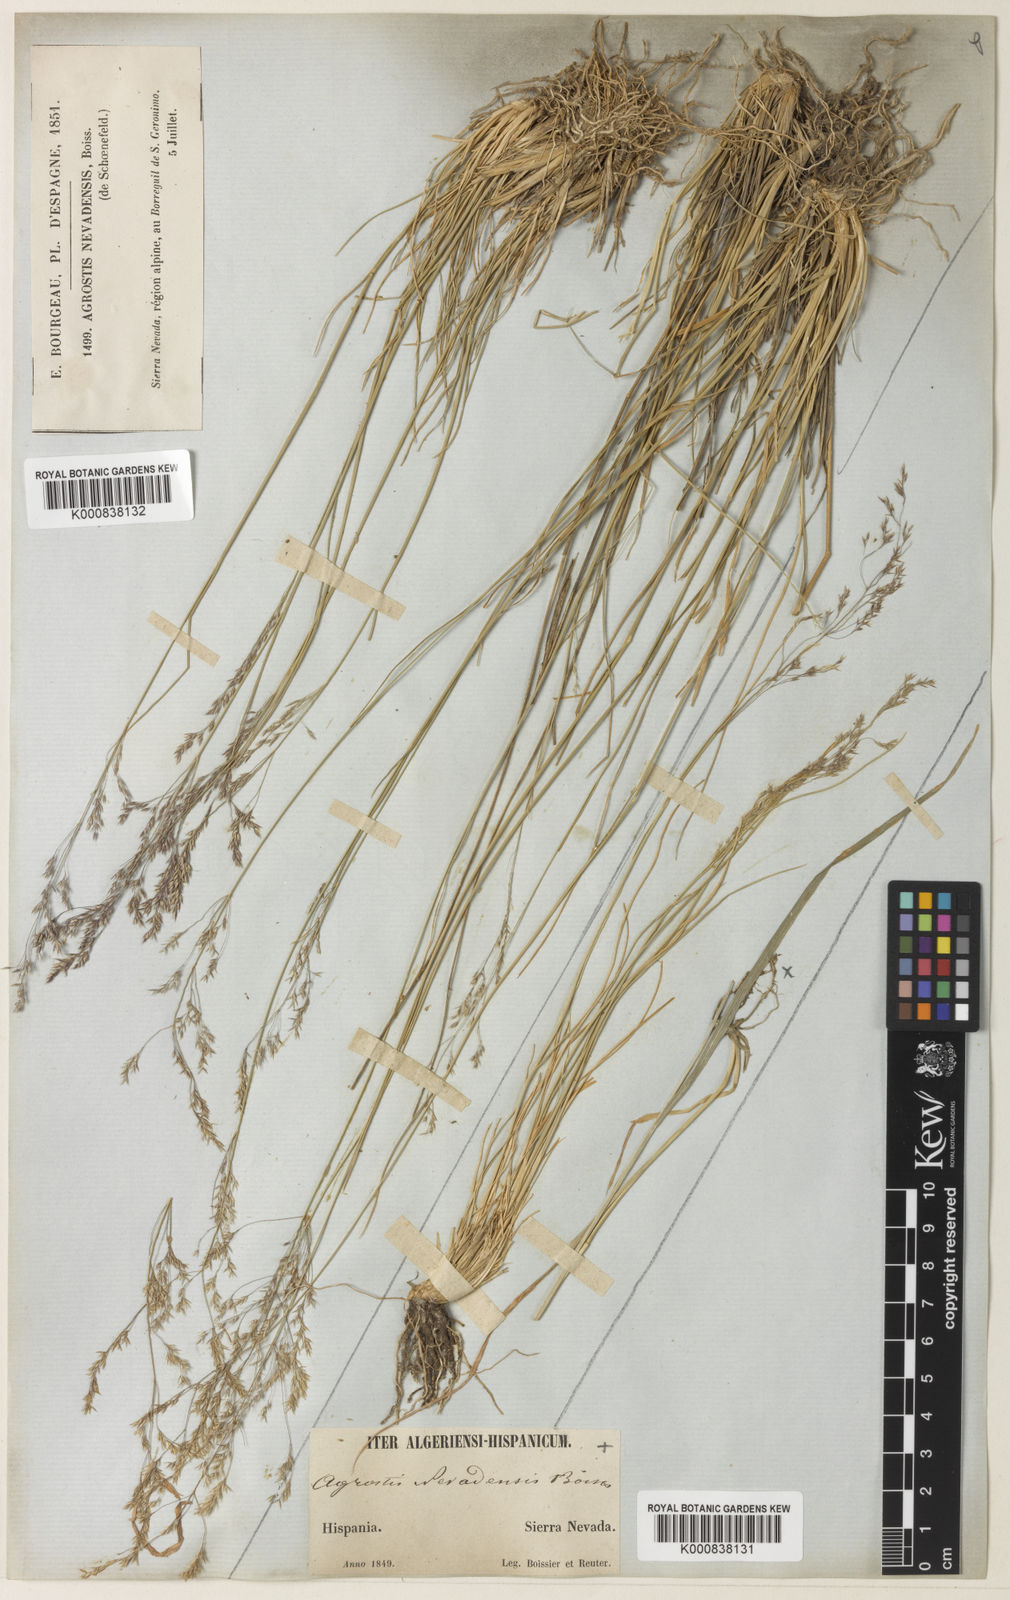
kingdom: Plantae
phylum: Tracheophyta
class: Liliopsida
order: Poales
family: Poaceae
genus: Agrostis
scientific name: Agrostis nevadensis
